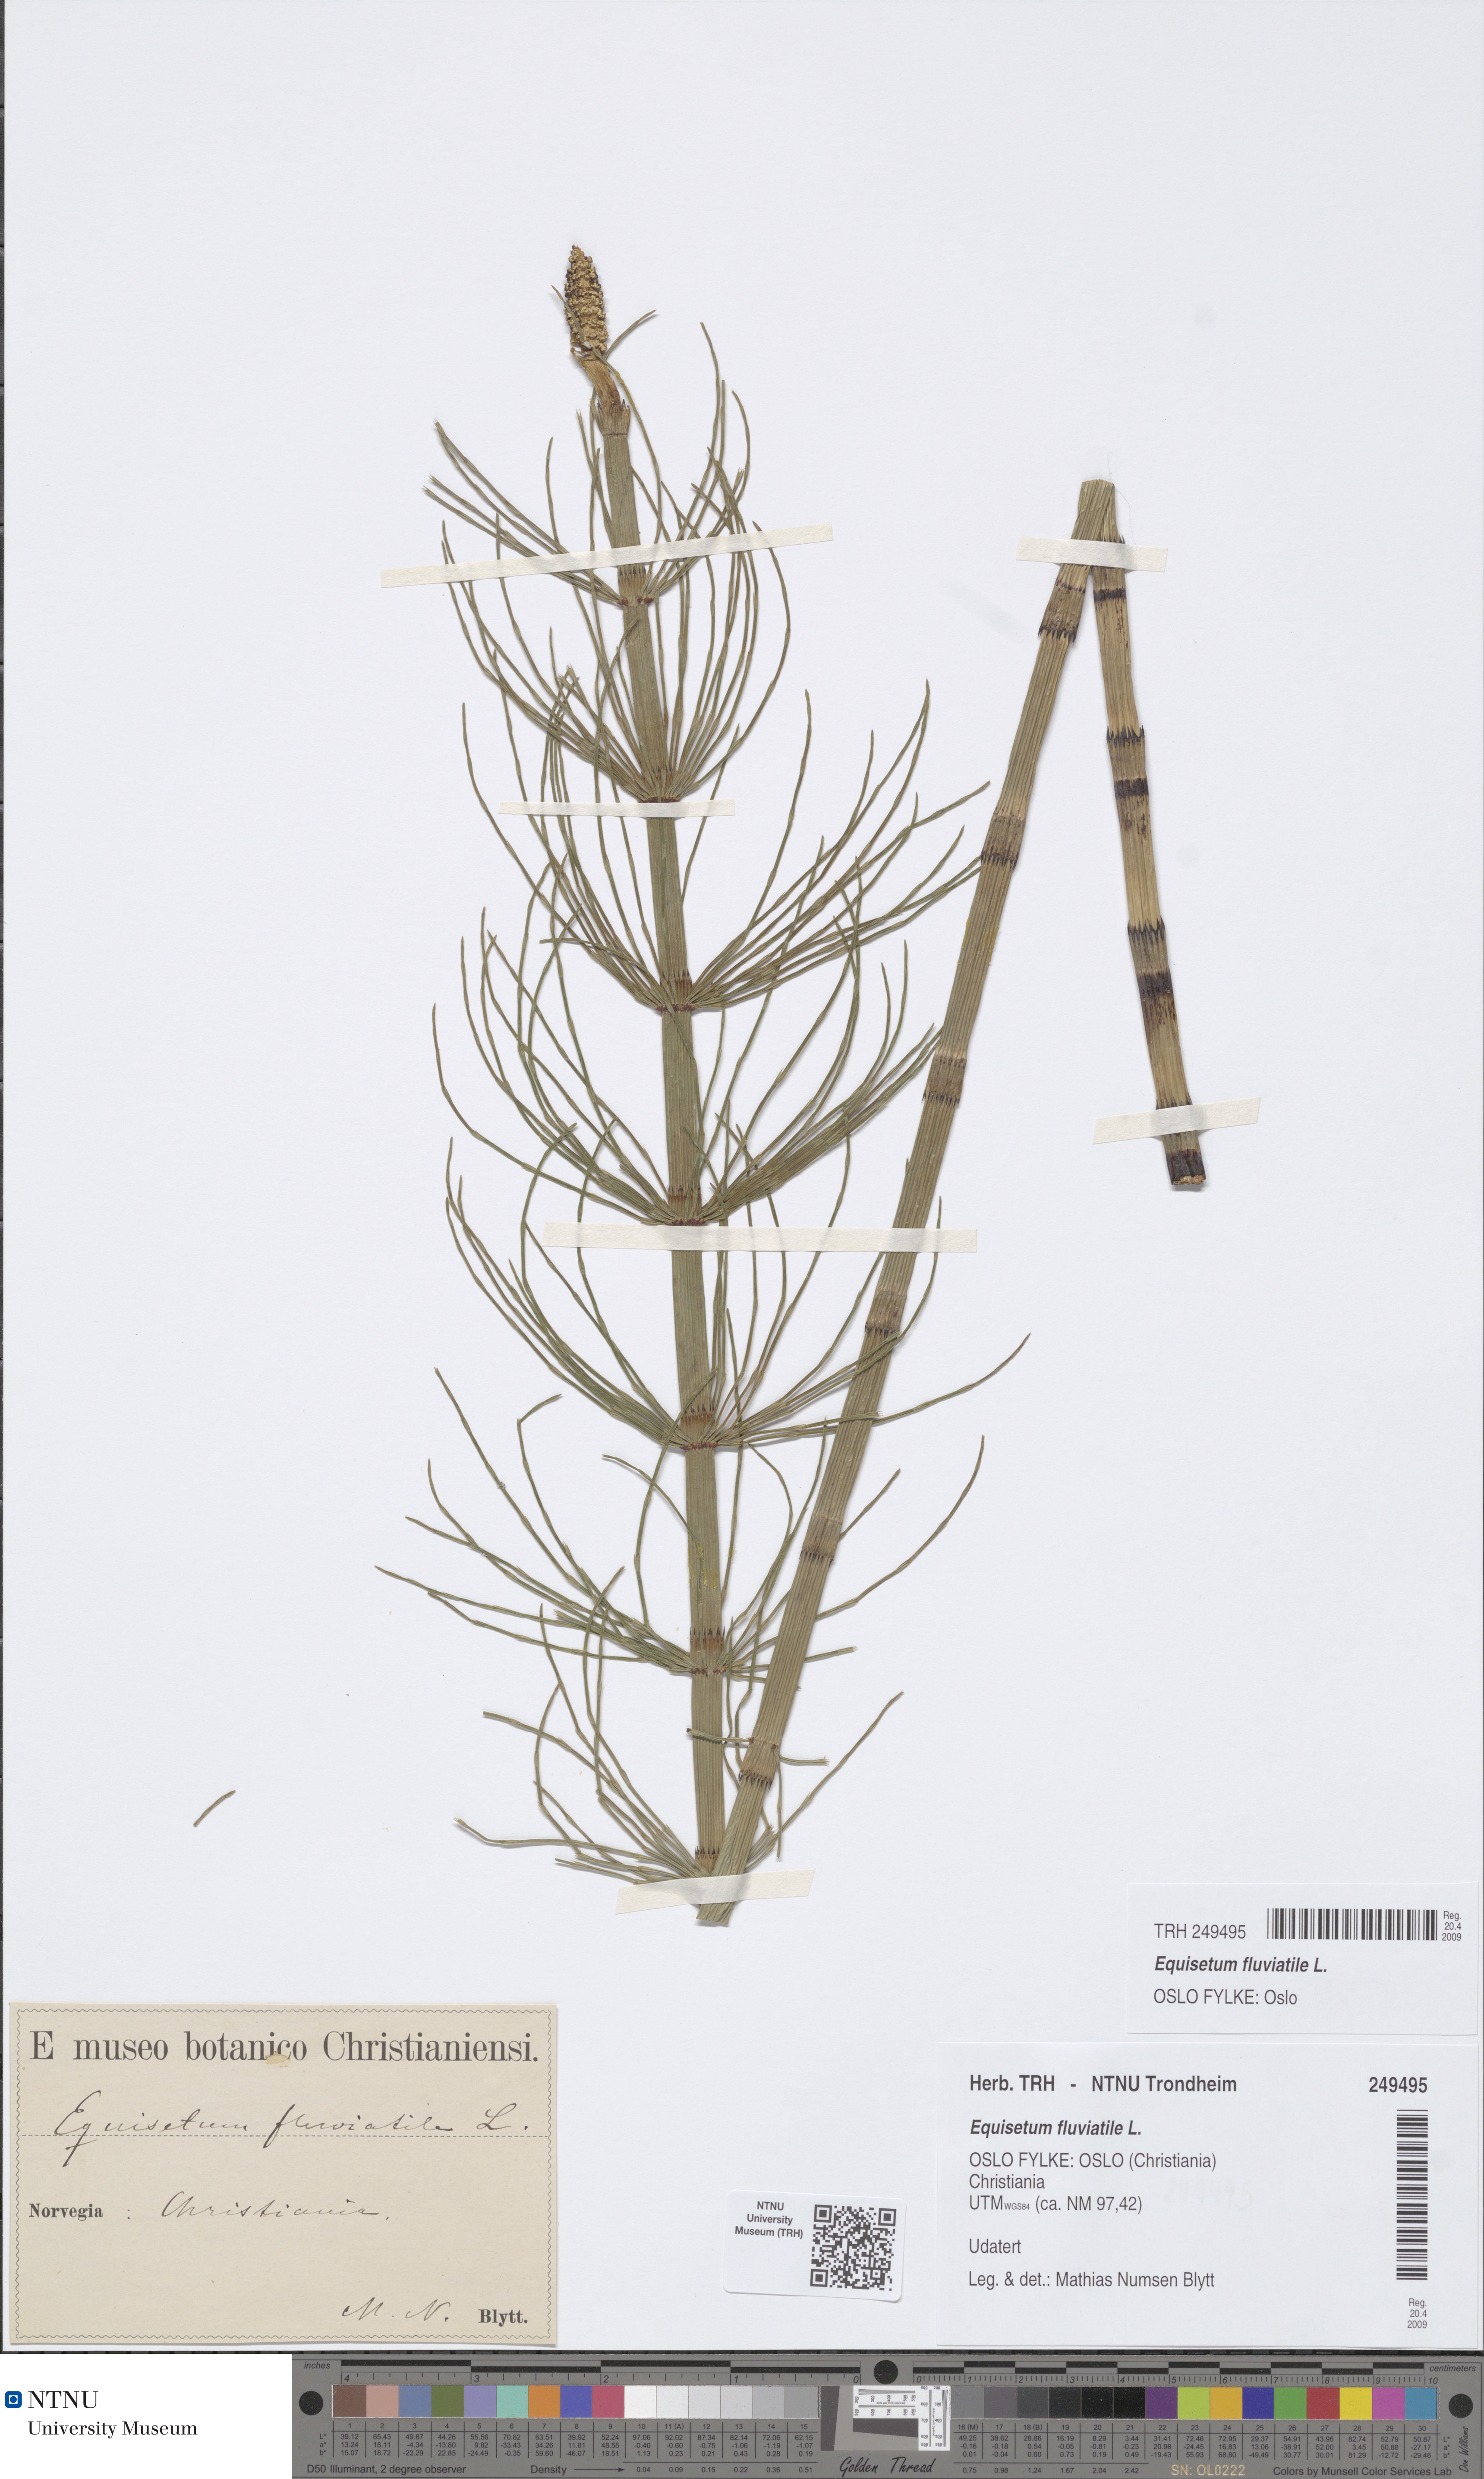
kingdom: Plantae
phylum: Tracheophyta
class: Polypodiopsida
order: Equisetales
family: Equisetaceae
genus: Equisetum
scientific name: Equisetum fluviatile
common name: Water horsetail
